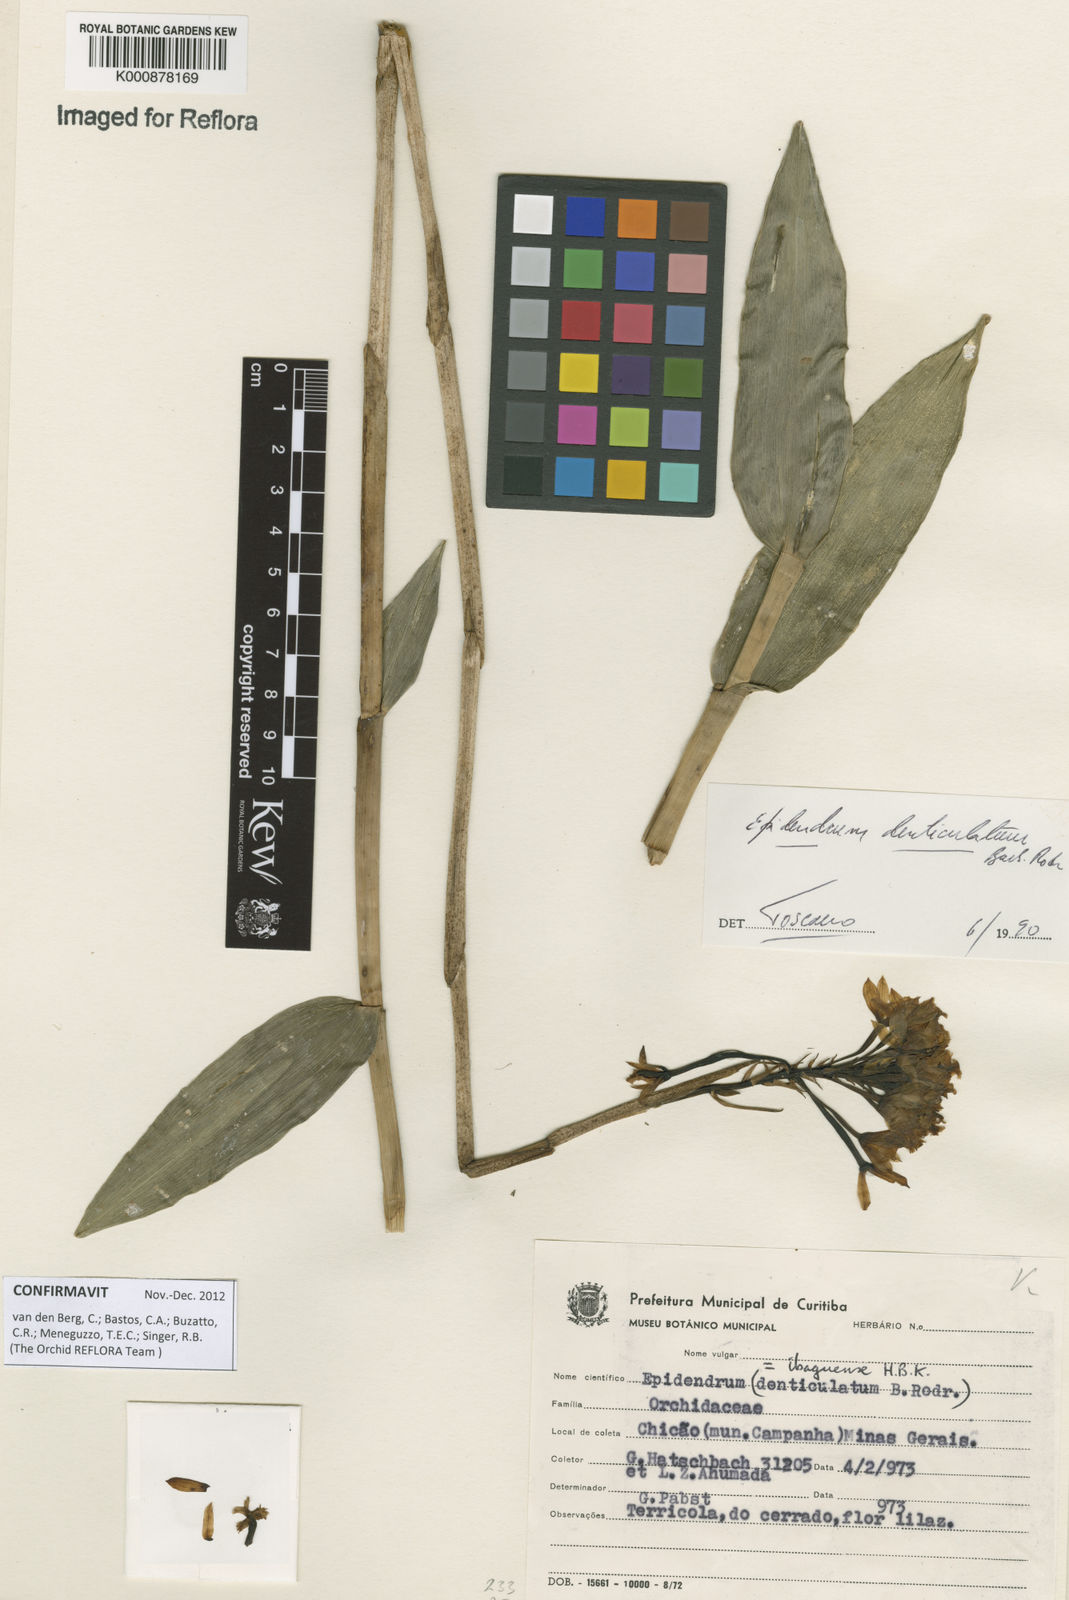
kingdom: Plantae
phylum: Tracheophyta
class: Liliopsida
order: Asparagales
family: Orchidaceae
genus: Epidendrum
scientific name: Epidendrum denticulatum
